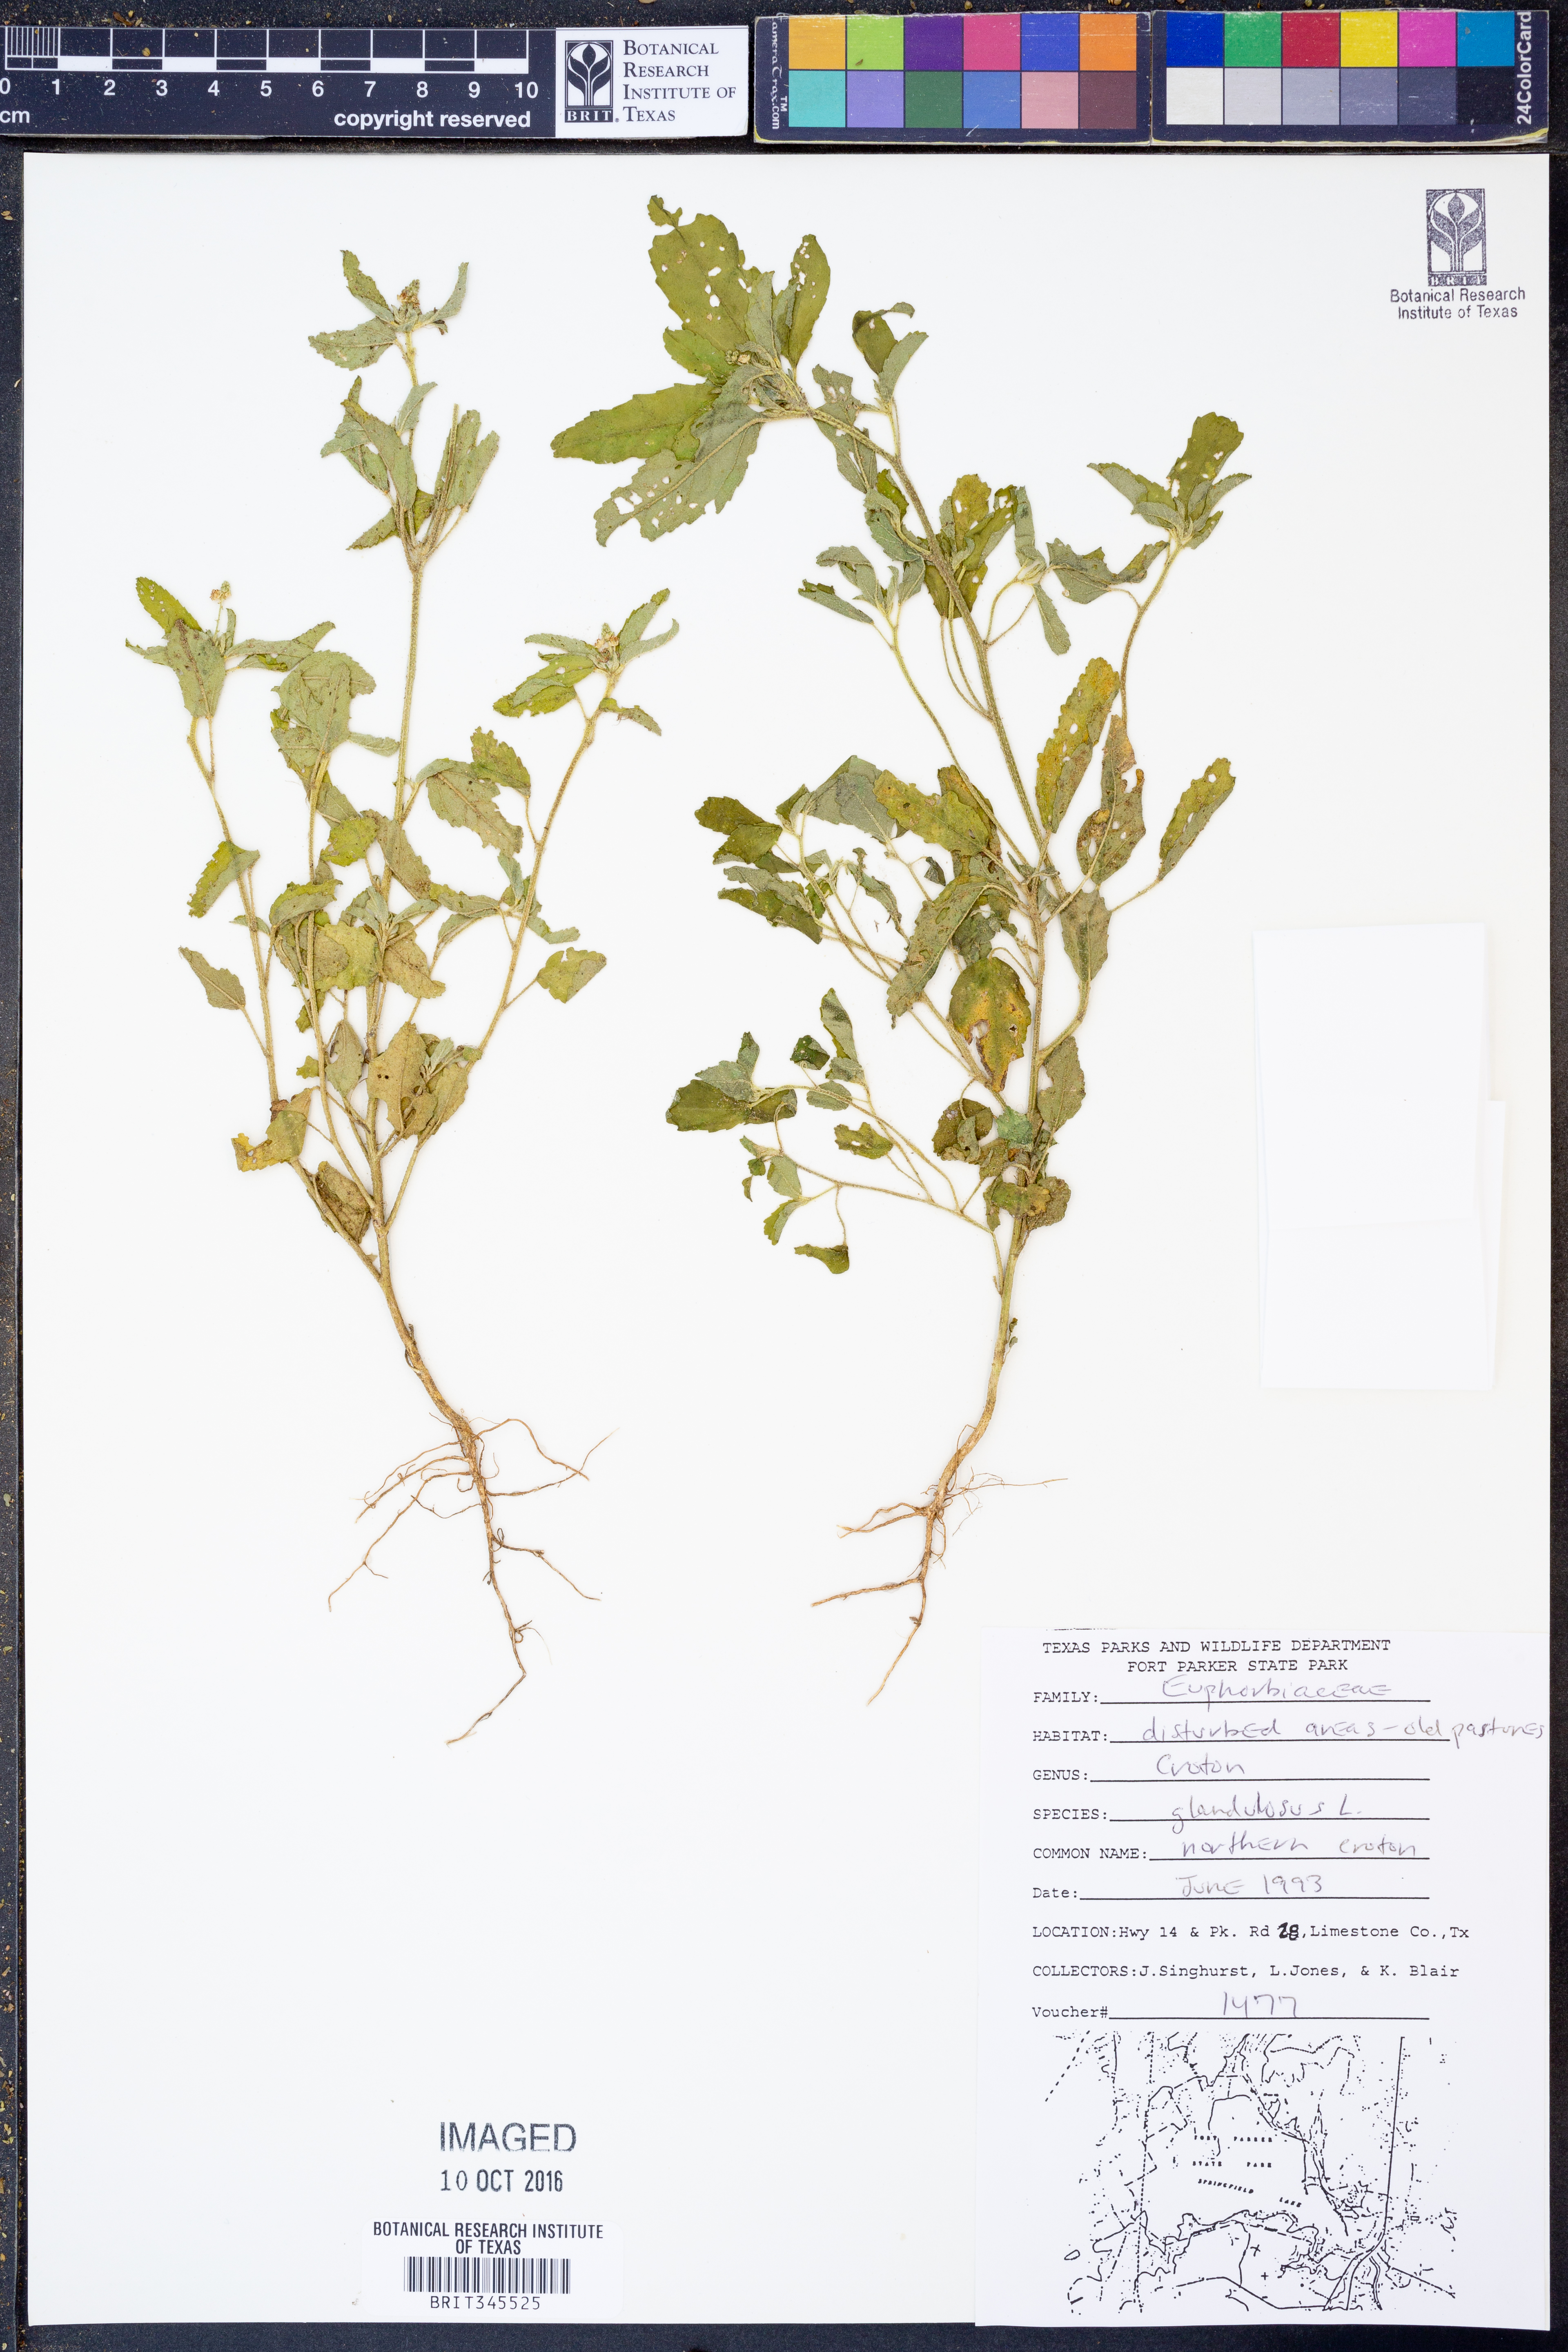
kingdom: Plantae
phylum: Tracheophyta
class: Magnoliopsida
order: Malpighiales
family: Euphorbiaceae
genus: Croton
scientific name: Croton glandulosus
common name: Tropic croton
